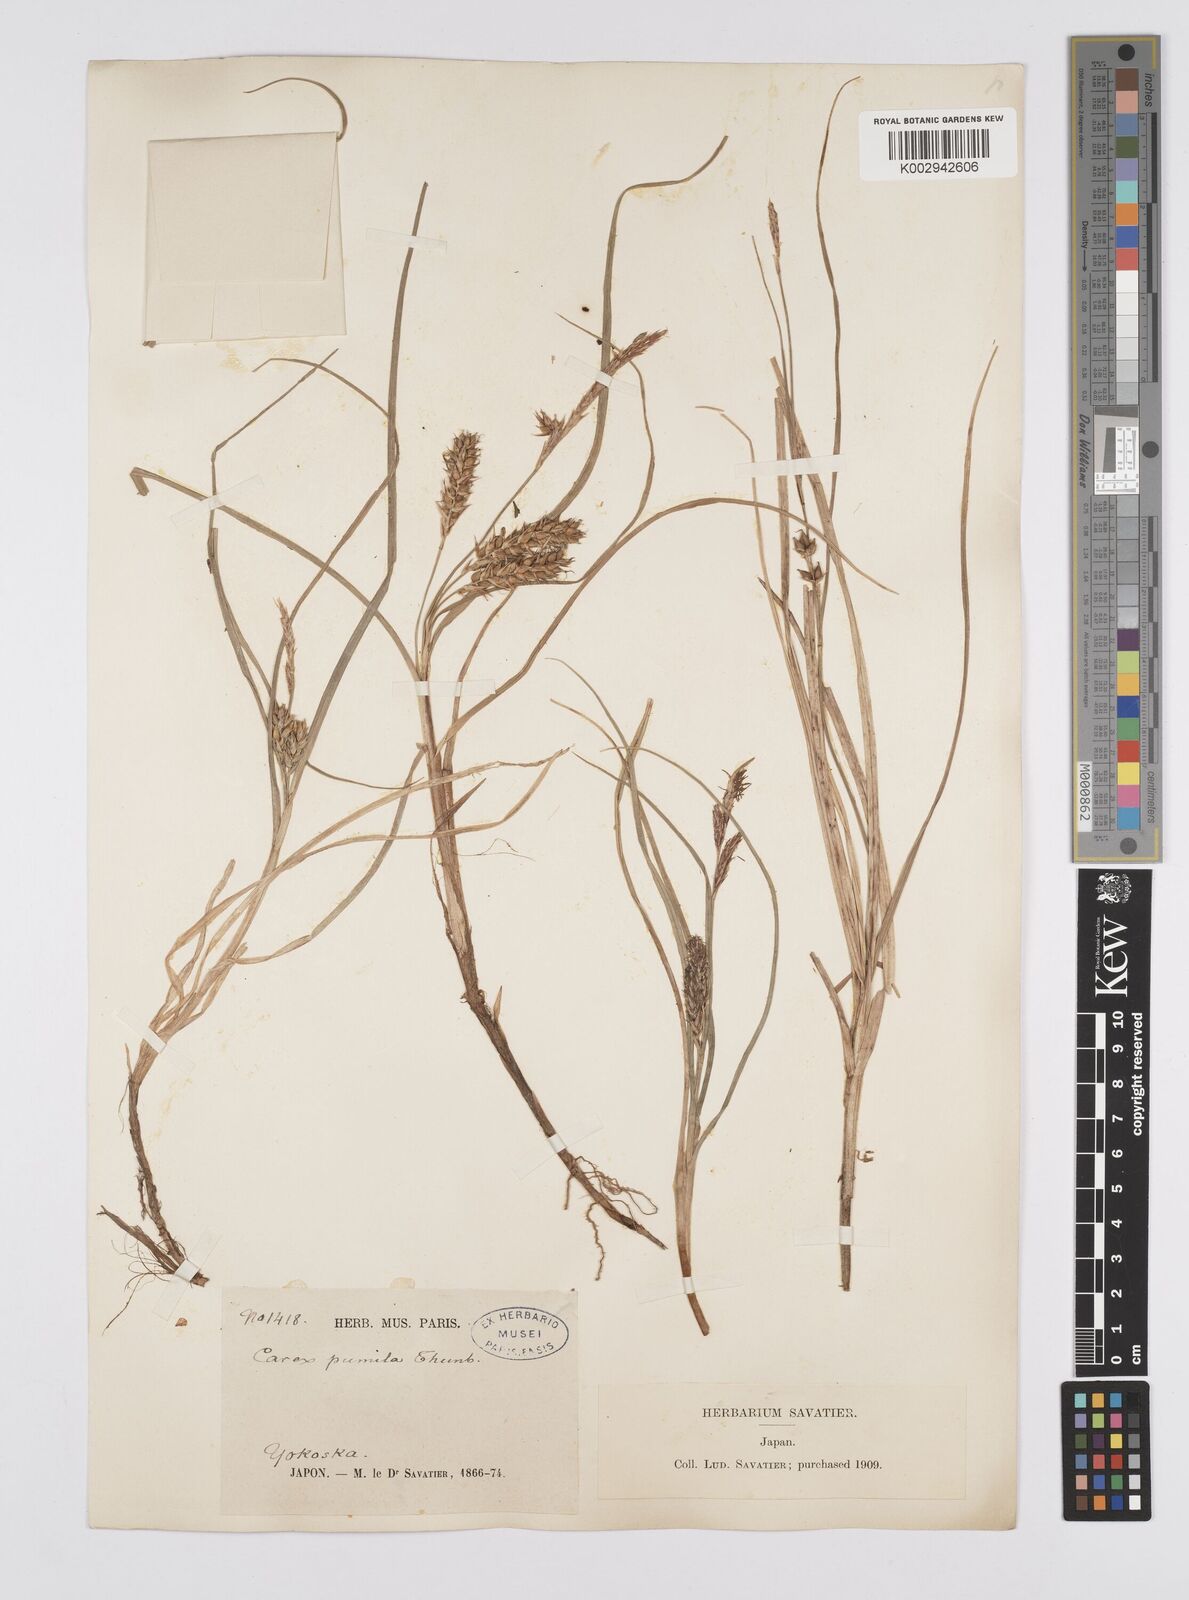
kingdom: Plantae
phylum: Tracheophyta
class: Liliopsida
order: Poales
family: Cyperaceae
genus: Carex
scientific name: Carex pumila
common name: Dwarf sedge
